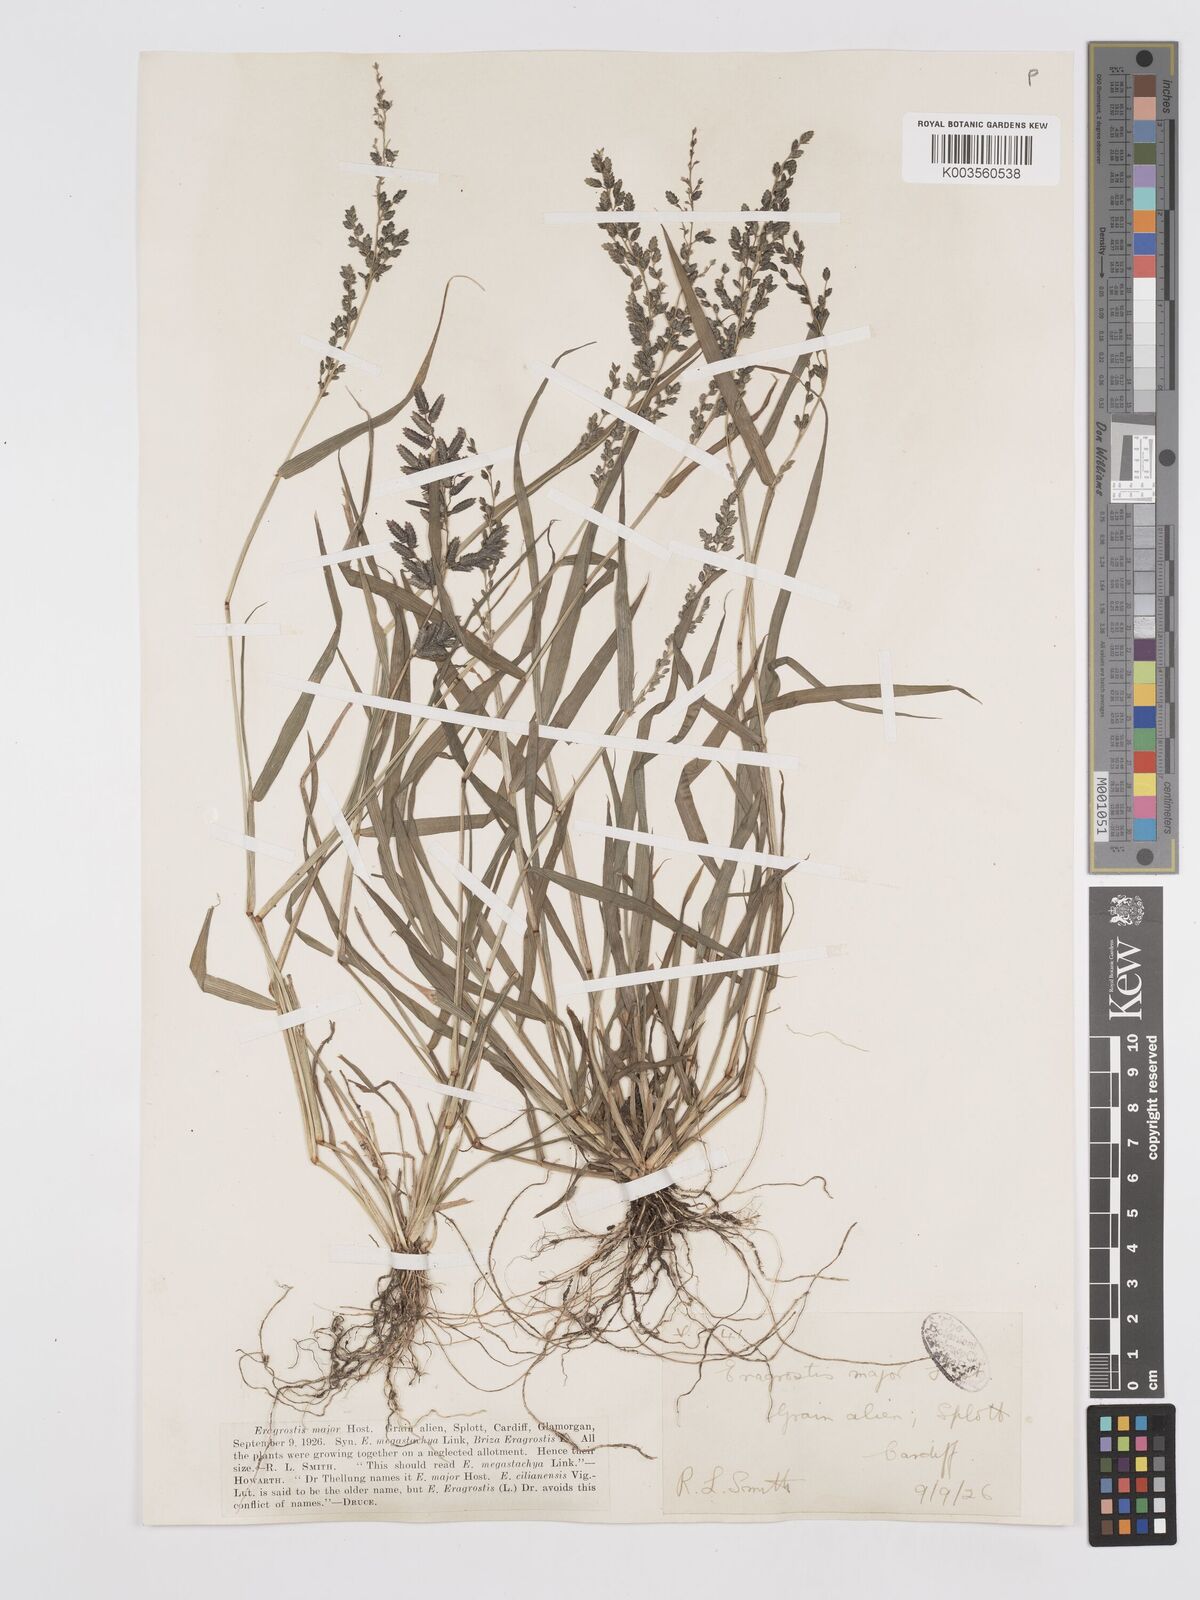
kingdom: Plantae
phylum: Tracheophyta
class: Liliopsida
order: Poales
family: Poaceae
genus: Eragrostis
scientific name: Eragrostis cilianensis
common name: Stinkgrass
